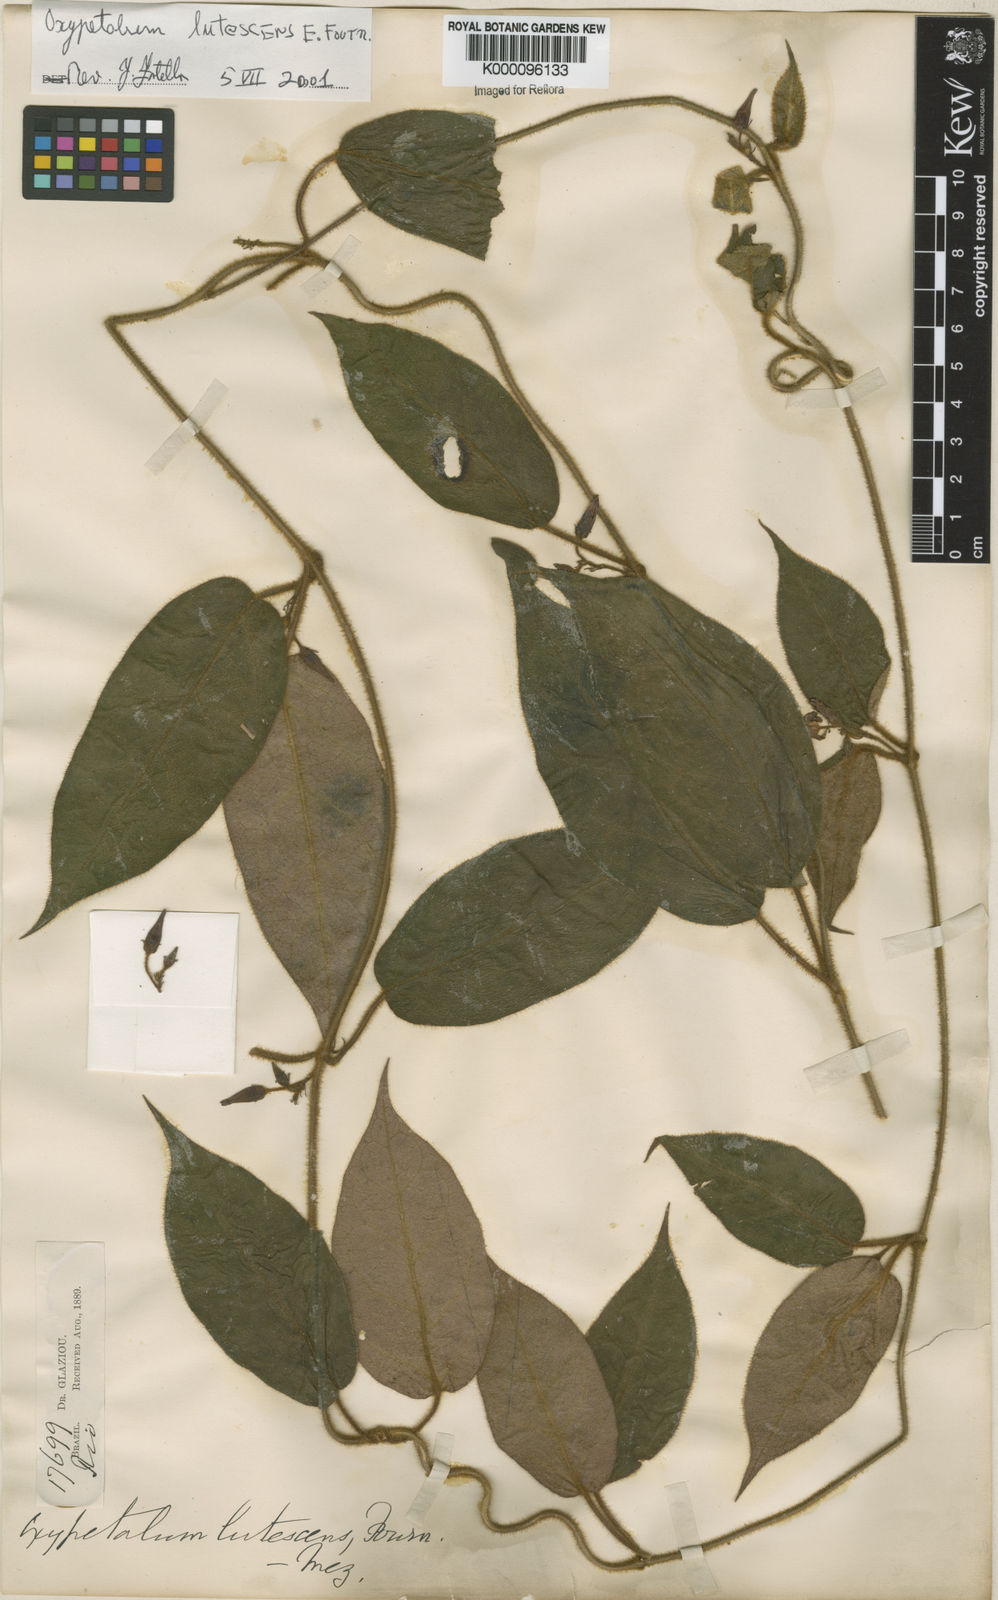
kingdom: Plantae
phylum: Tracheophyta
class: Magnoliopsida
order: Gentianales
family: Apocynaceae
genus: Oxypetalum
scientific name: Oxypetalum lutescens
